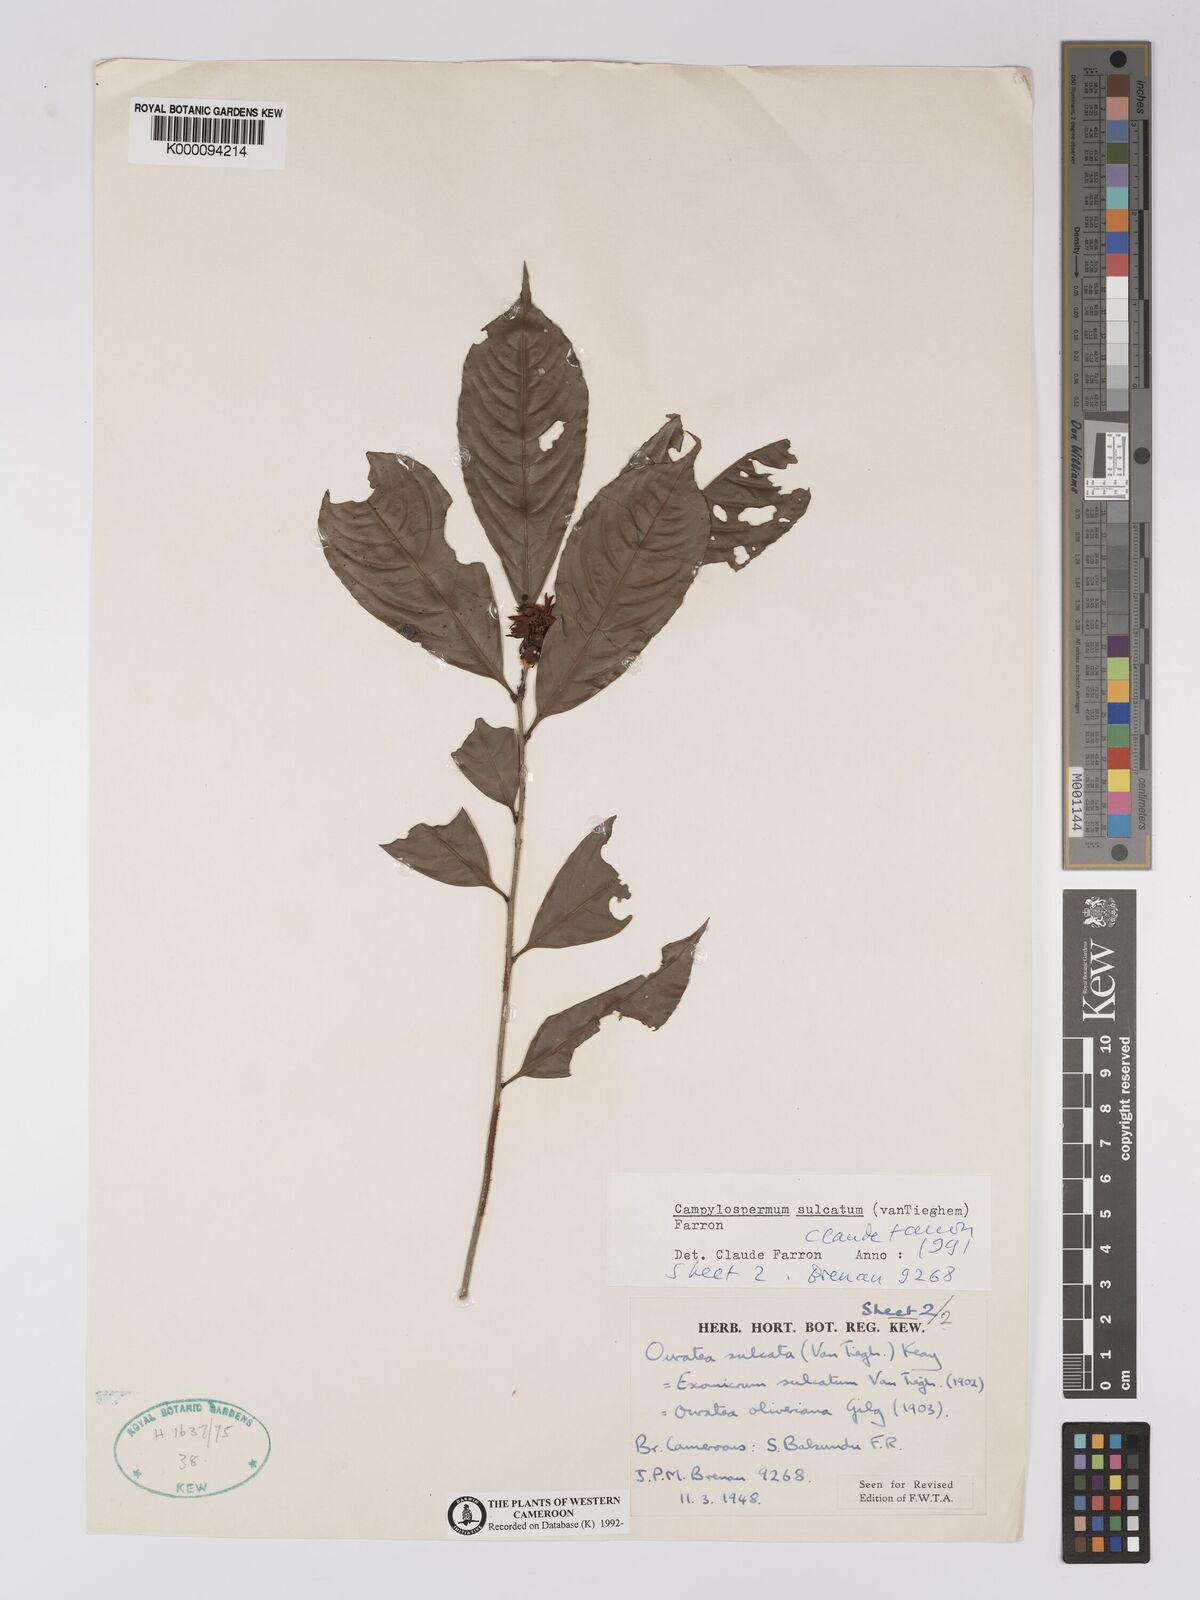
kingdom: Plantae
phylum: Tracheophyta
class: Magnoliopsida
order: Malpighiales
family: Ochnaceae
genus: Campylospermum
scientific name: Campylospermum sulcatum
